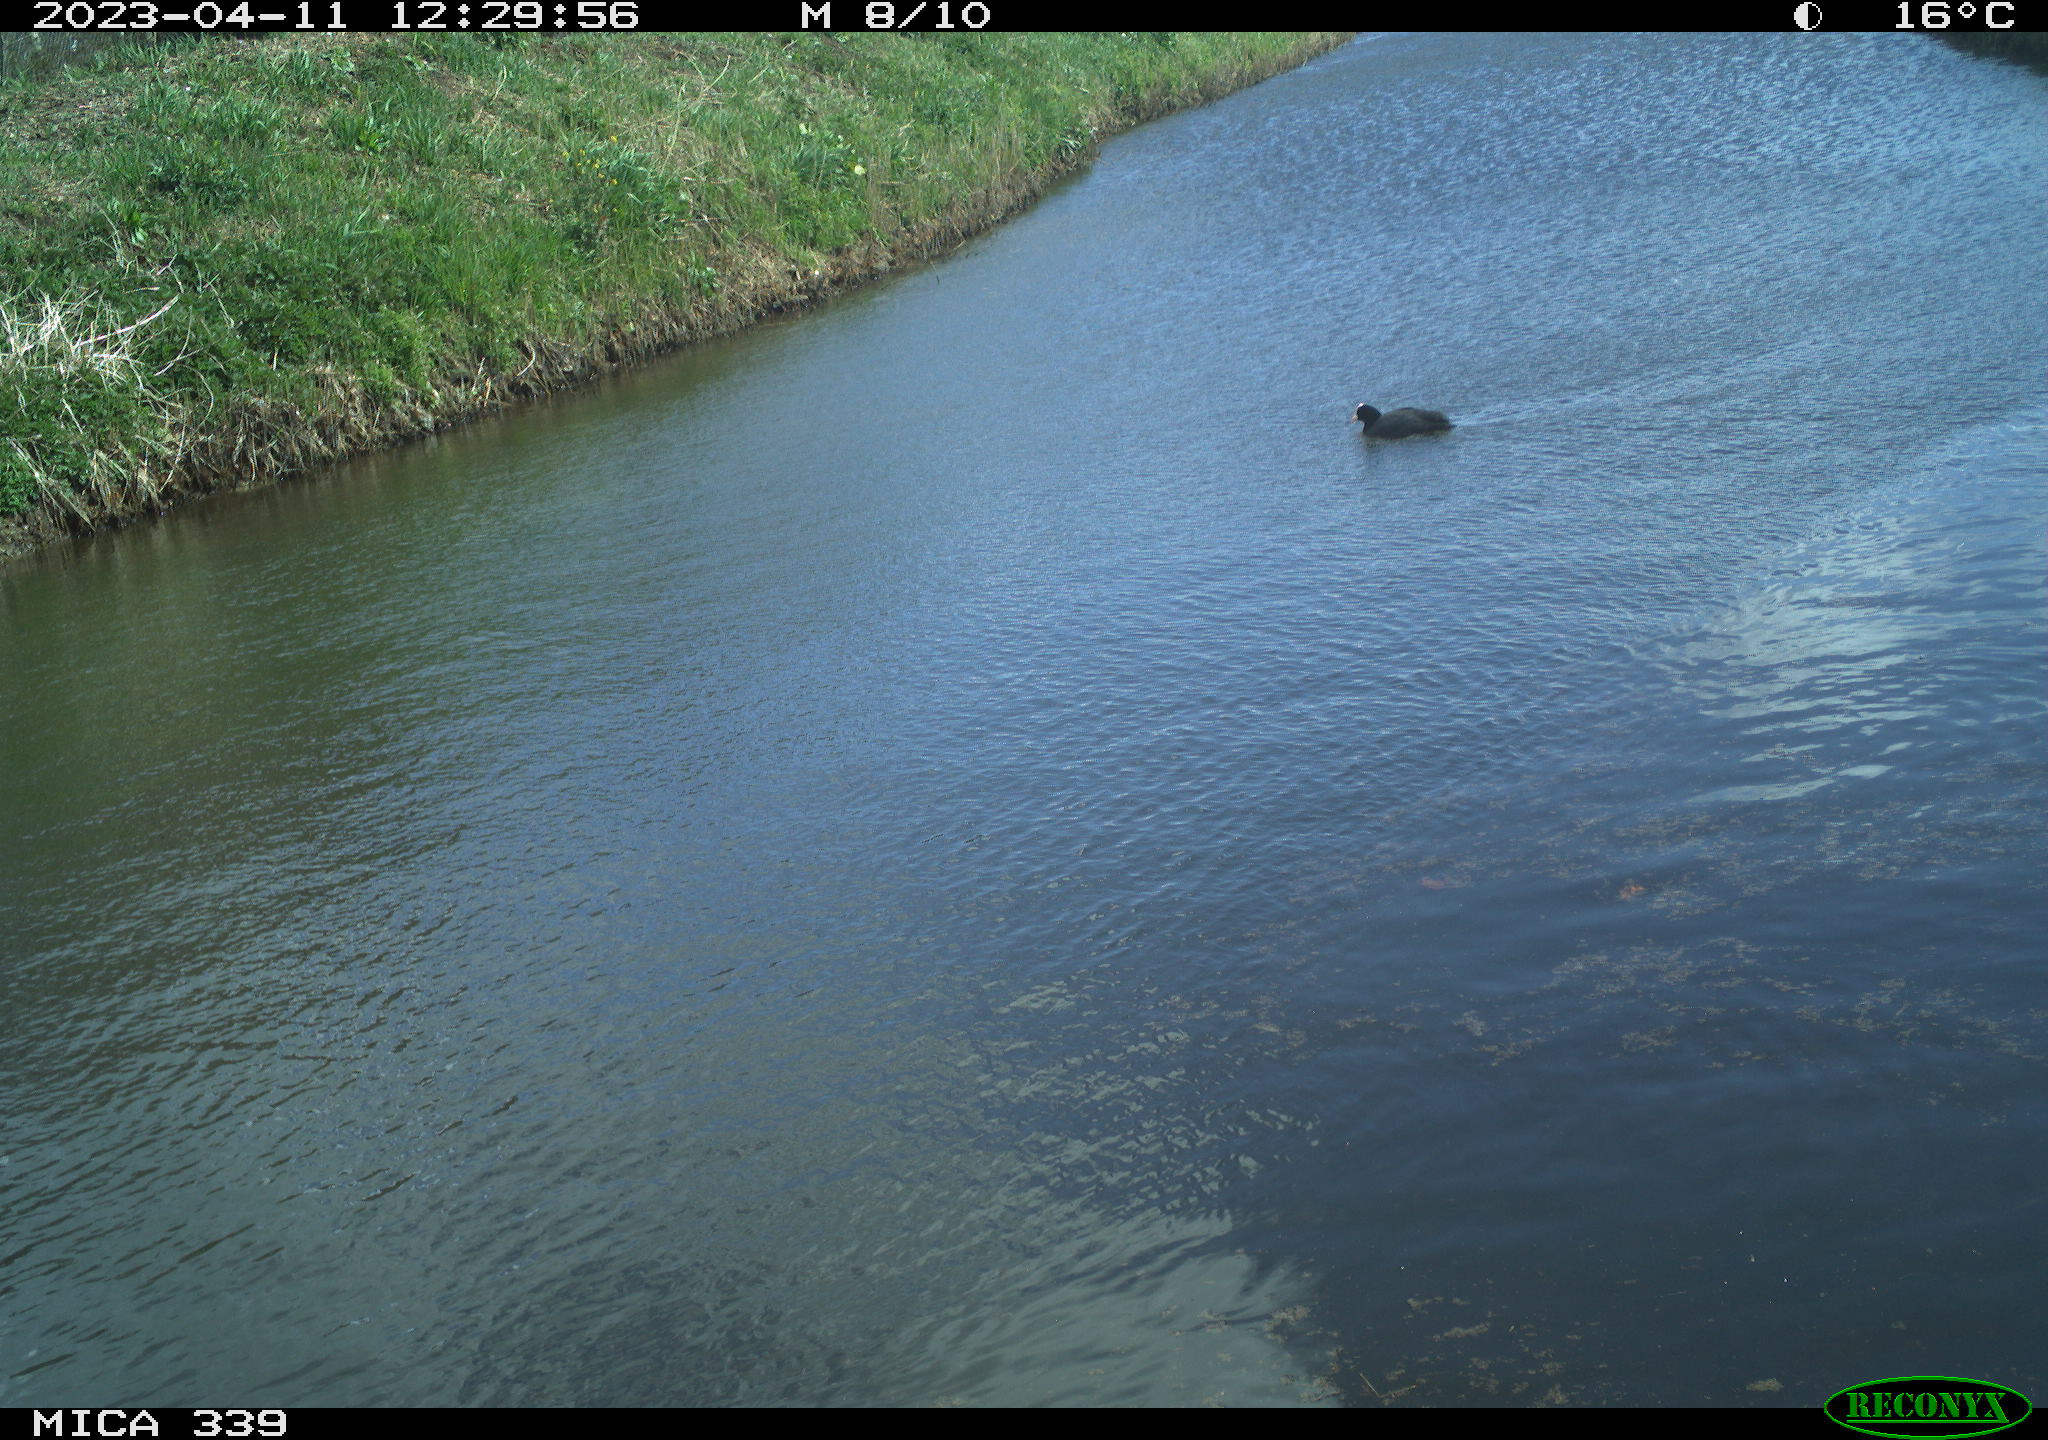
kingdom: Animalia
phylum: Chordata
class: Aves
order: Gruiformes
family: Rallidae
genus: Fulica
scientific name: Fulica atra
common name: Eurasian coot
